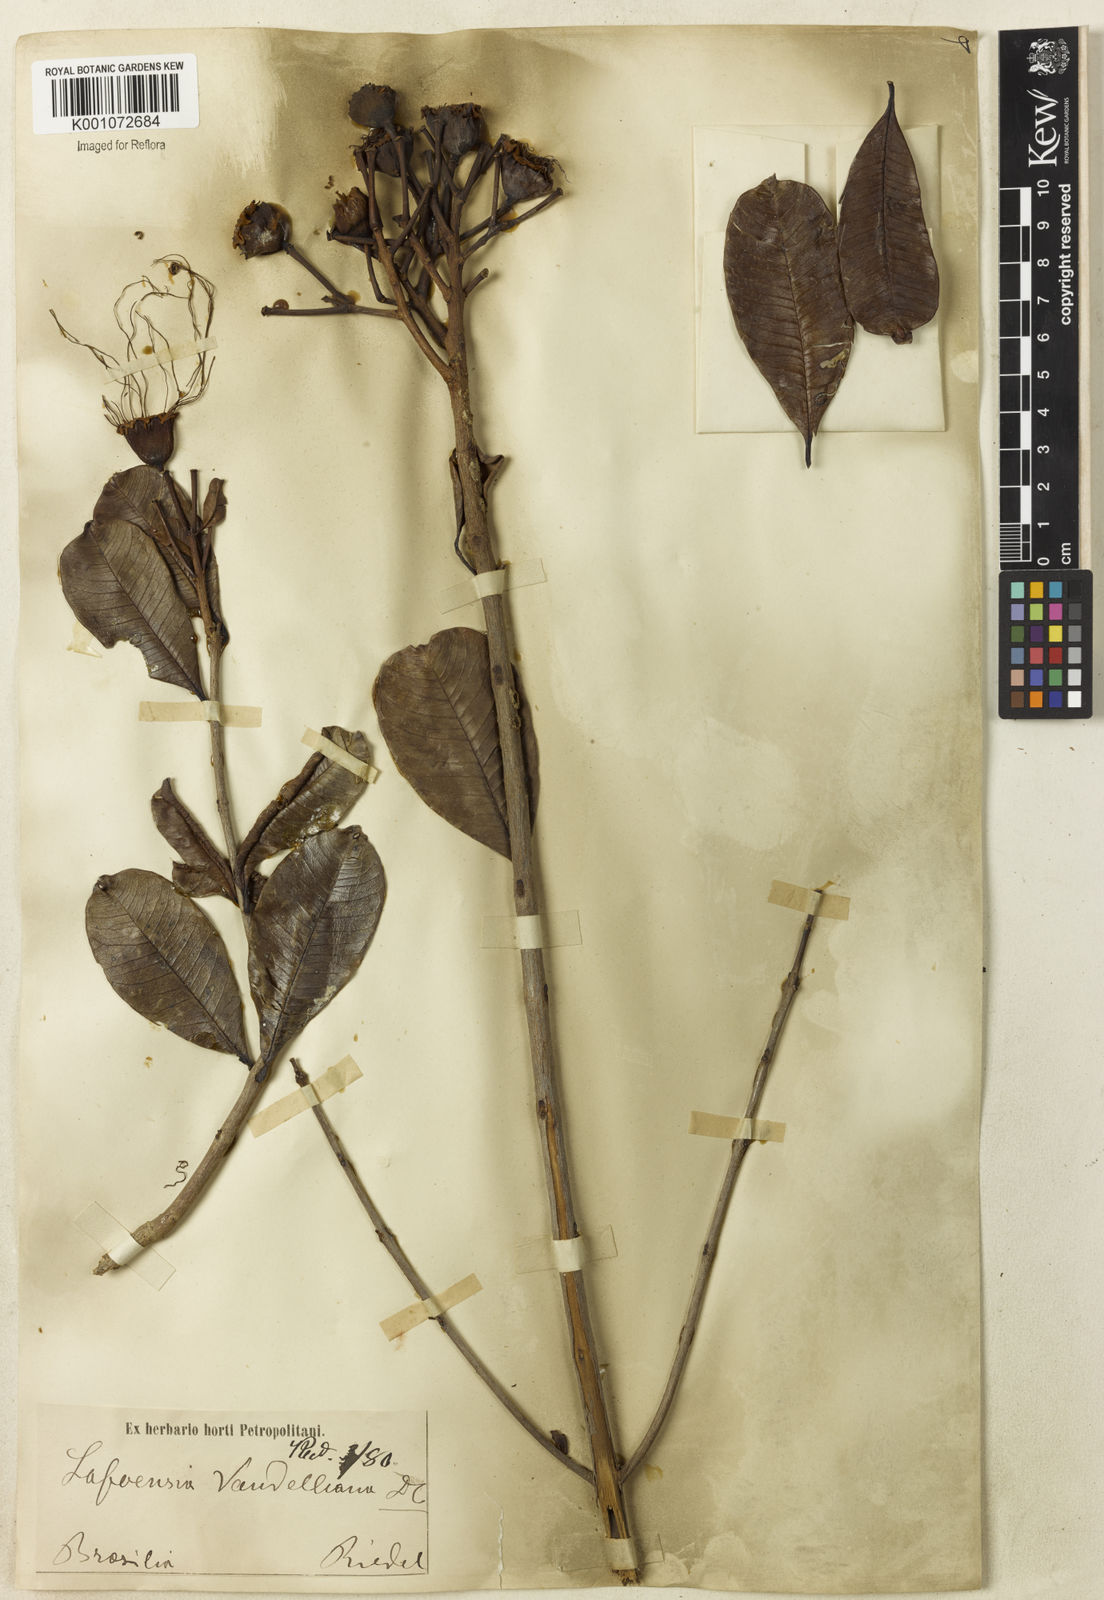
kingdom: Plantae
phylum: Tracheophyta
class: Magnoliopsida
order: Myrtales
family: Lythraceae
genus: Lafoensia
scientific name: Lafoensia vandelliana
